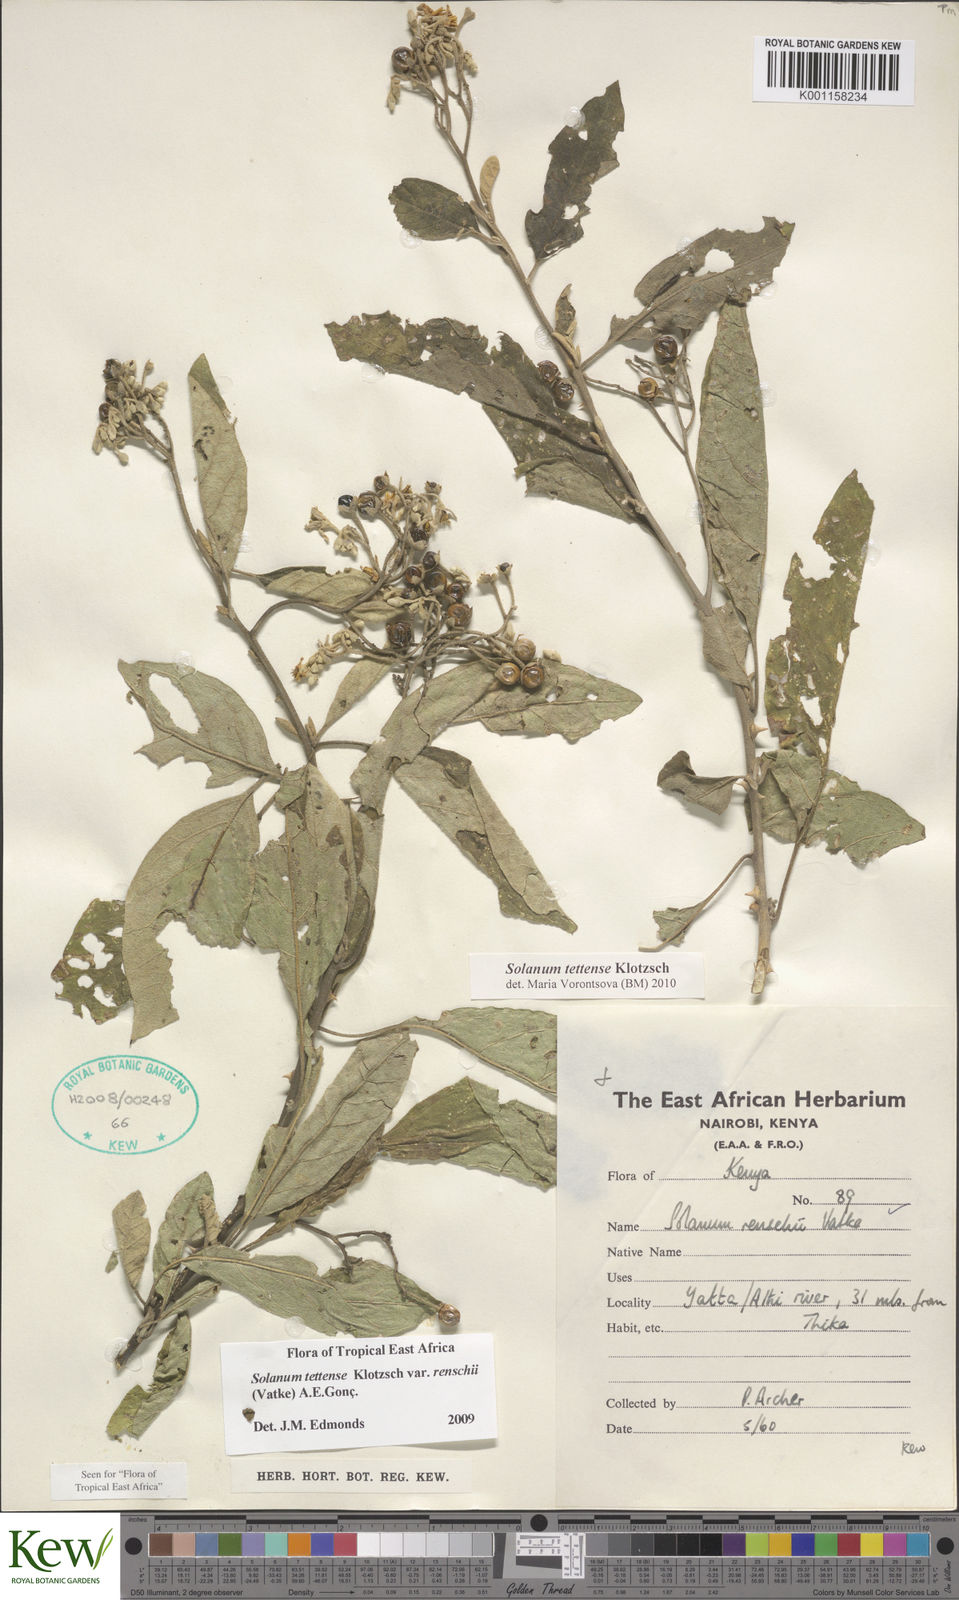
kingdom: Plantae
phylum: Tracheophyta
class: Magnoliopsida
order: Solanales
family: Solanaceae
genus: Solanum
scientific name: Solanum tettense
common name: Mozambique bitter apple
